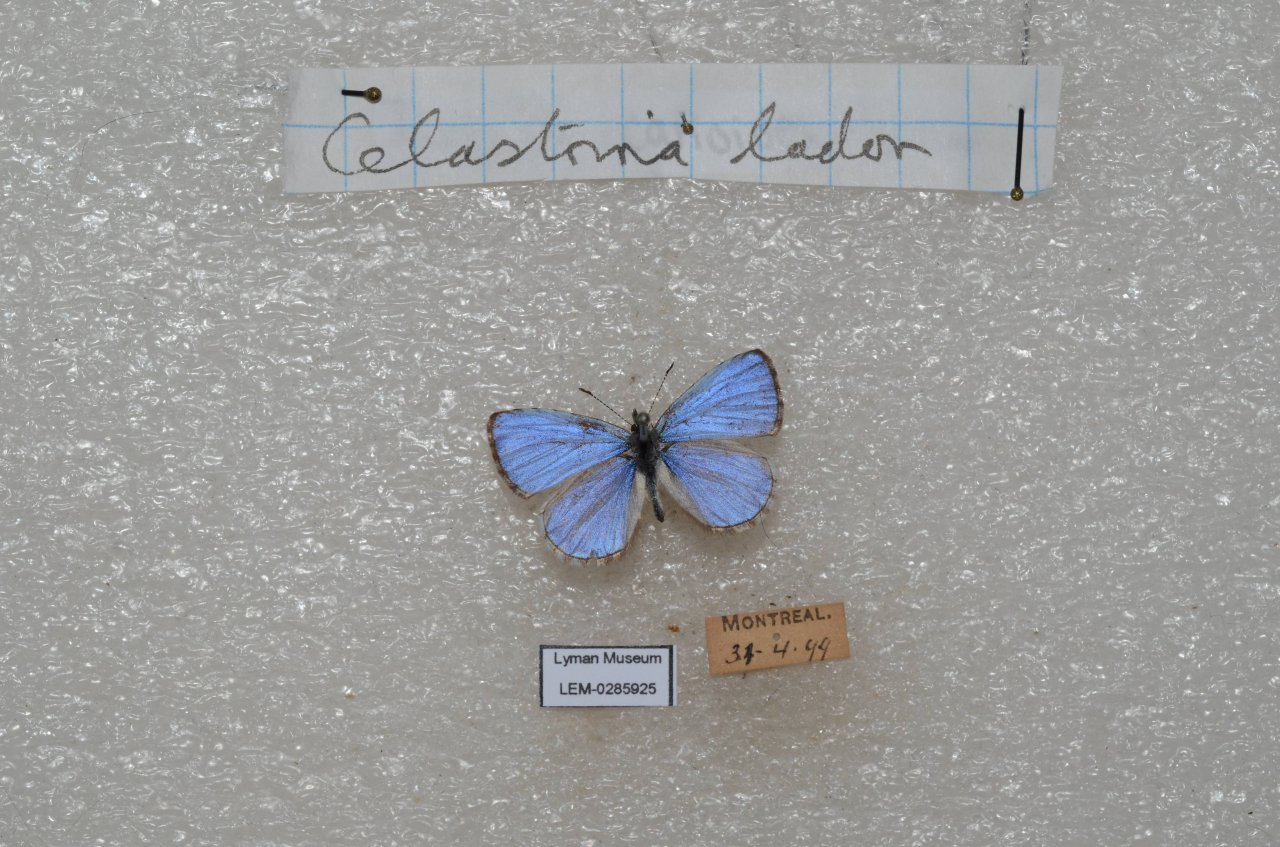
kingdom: Animalia
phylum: Arthropoda
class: Insecta
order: Lepidoptera
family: Lycaenidae
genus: Celastrina
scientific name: Celastrina lucia
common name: Northern Spring Azure
